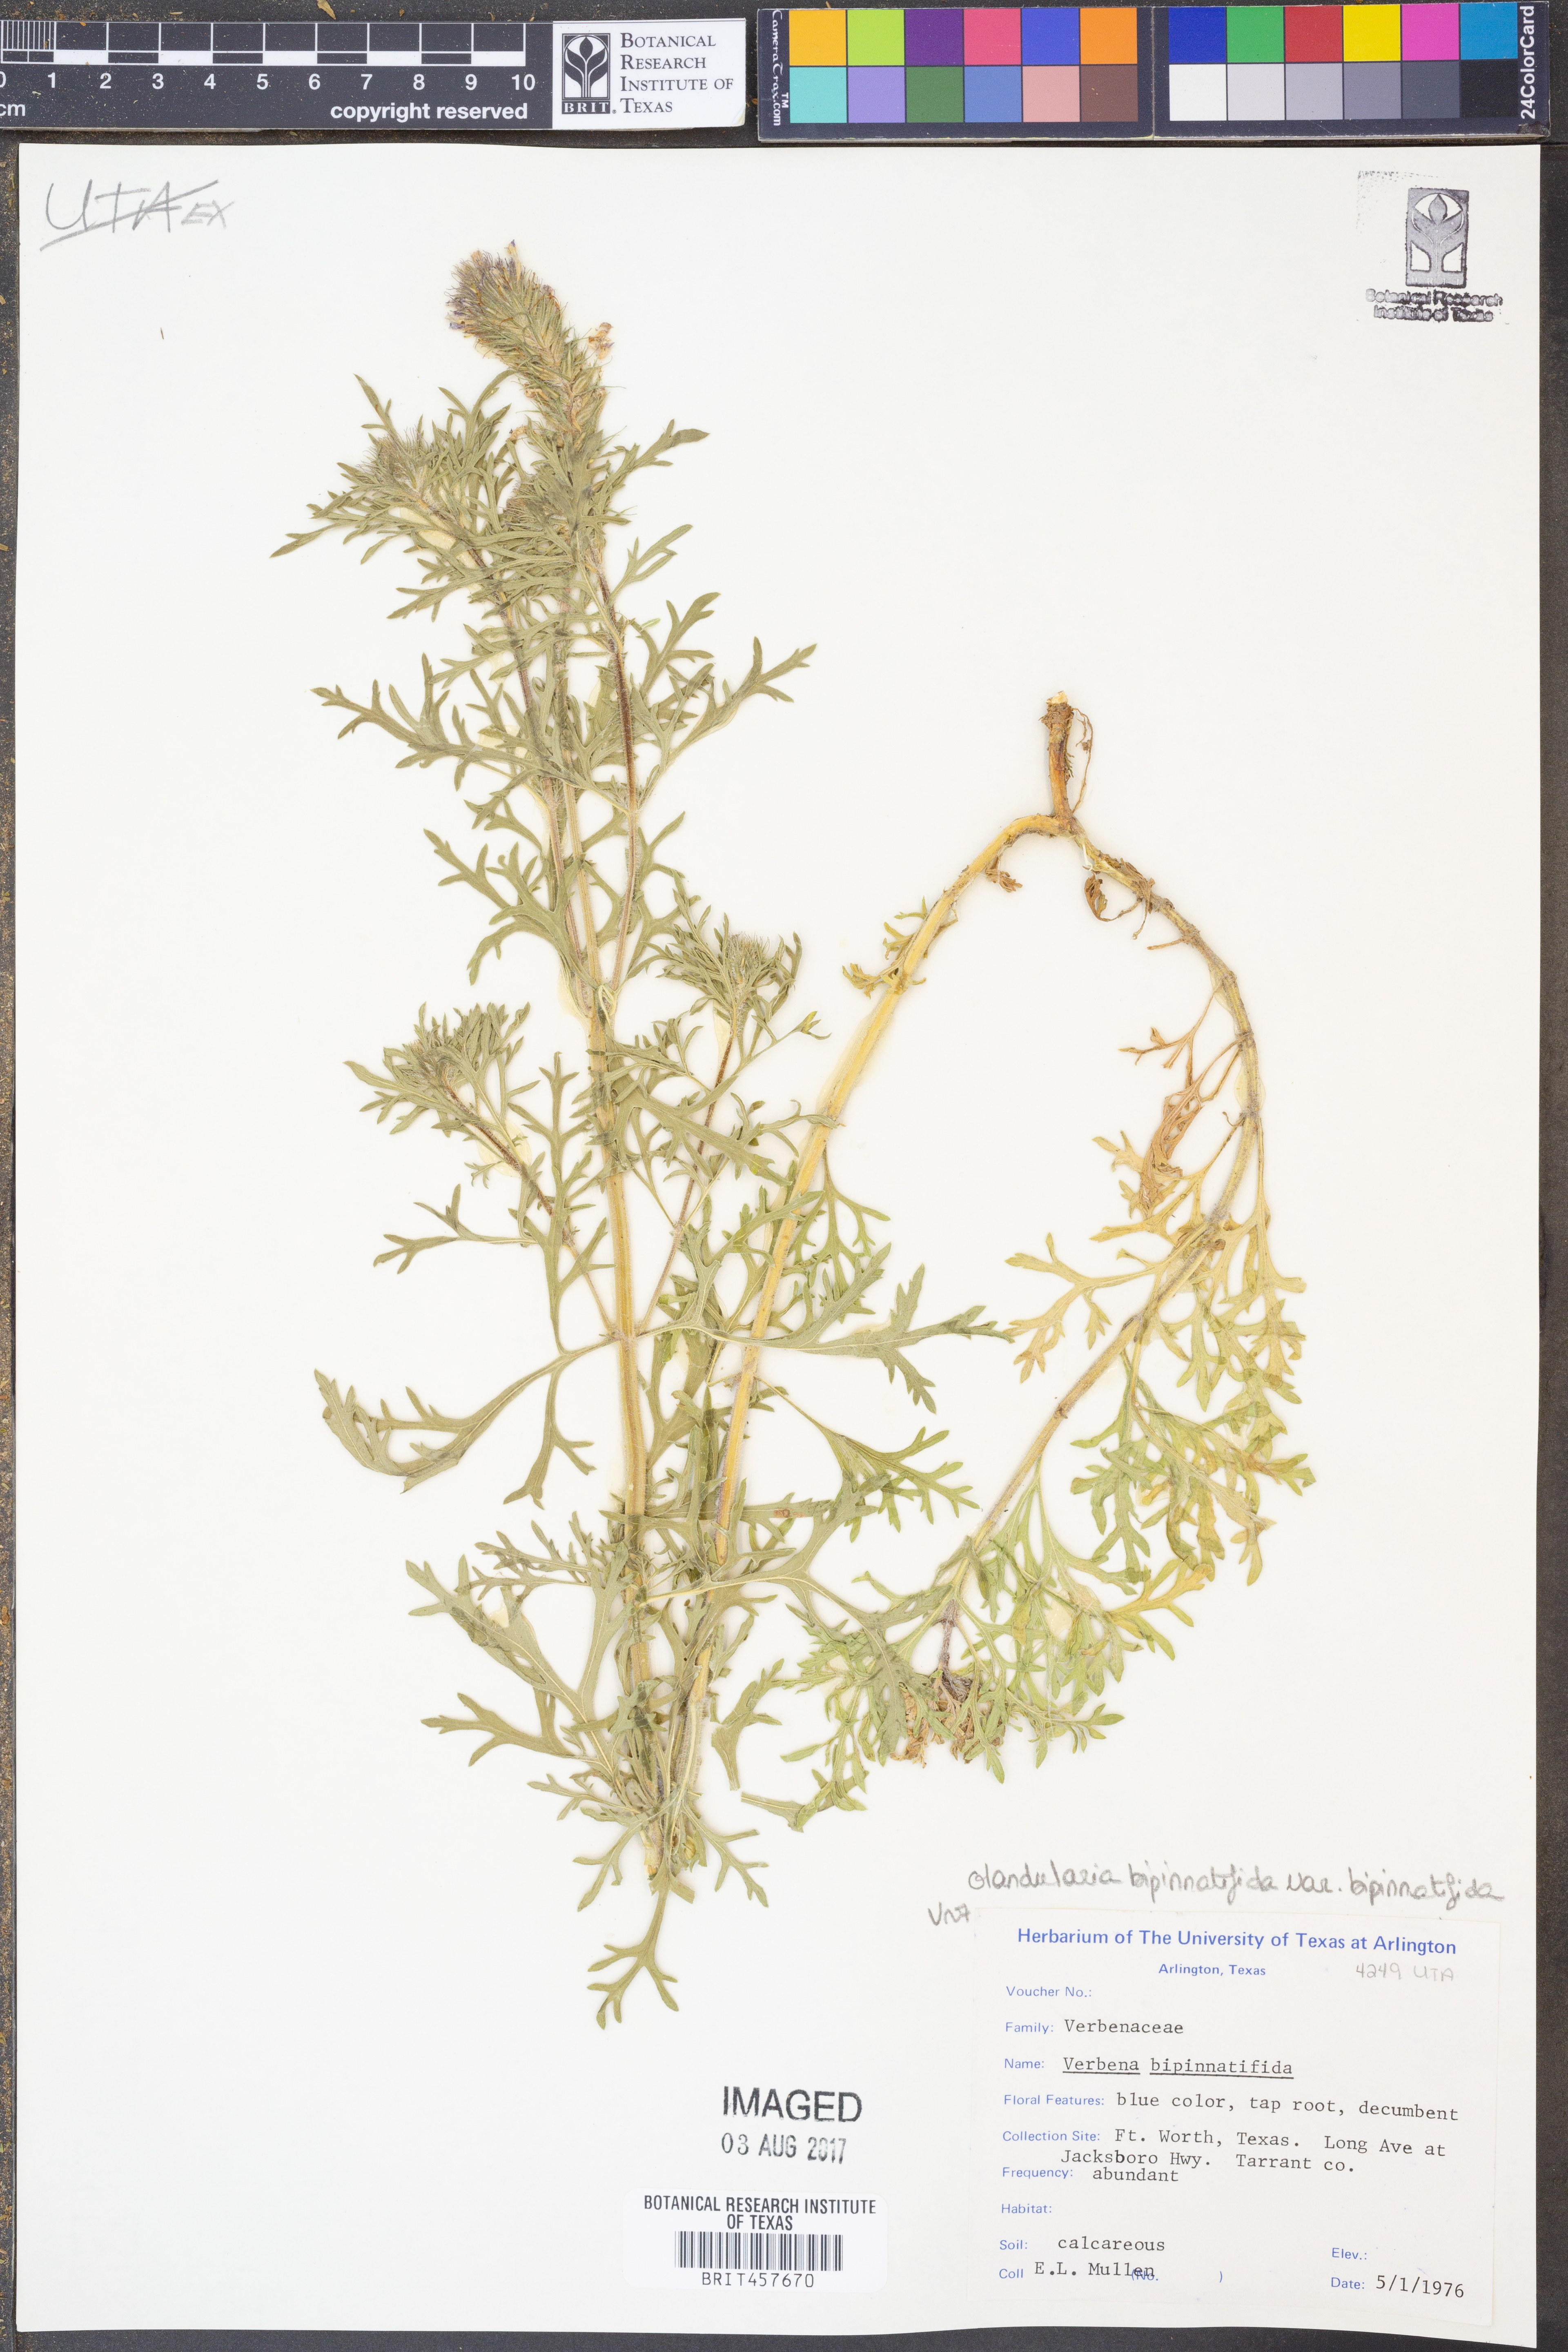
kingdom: Plantae
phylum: Tracheophyta
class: Magnoliopsida
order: Lamiales
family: Verbenaceae
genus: Verbena
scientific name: Verbena bipinnatifida
